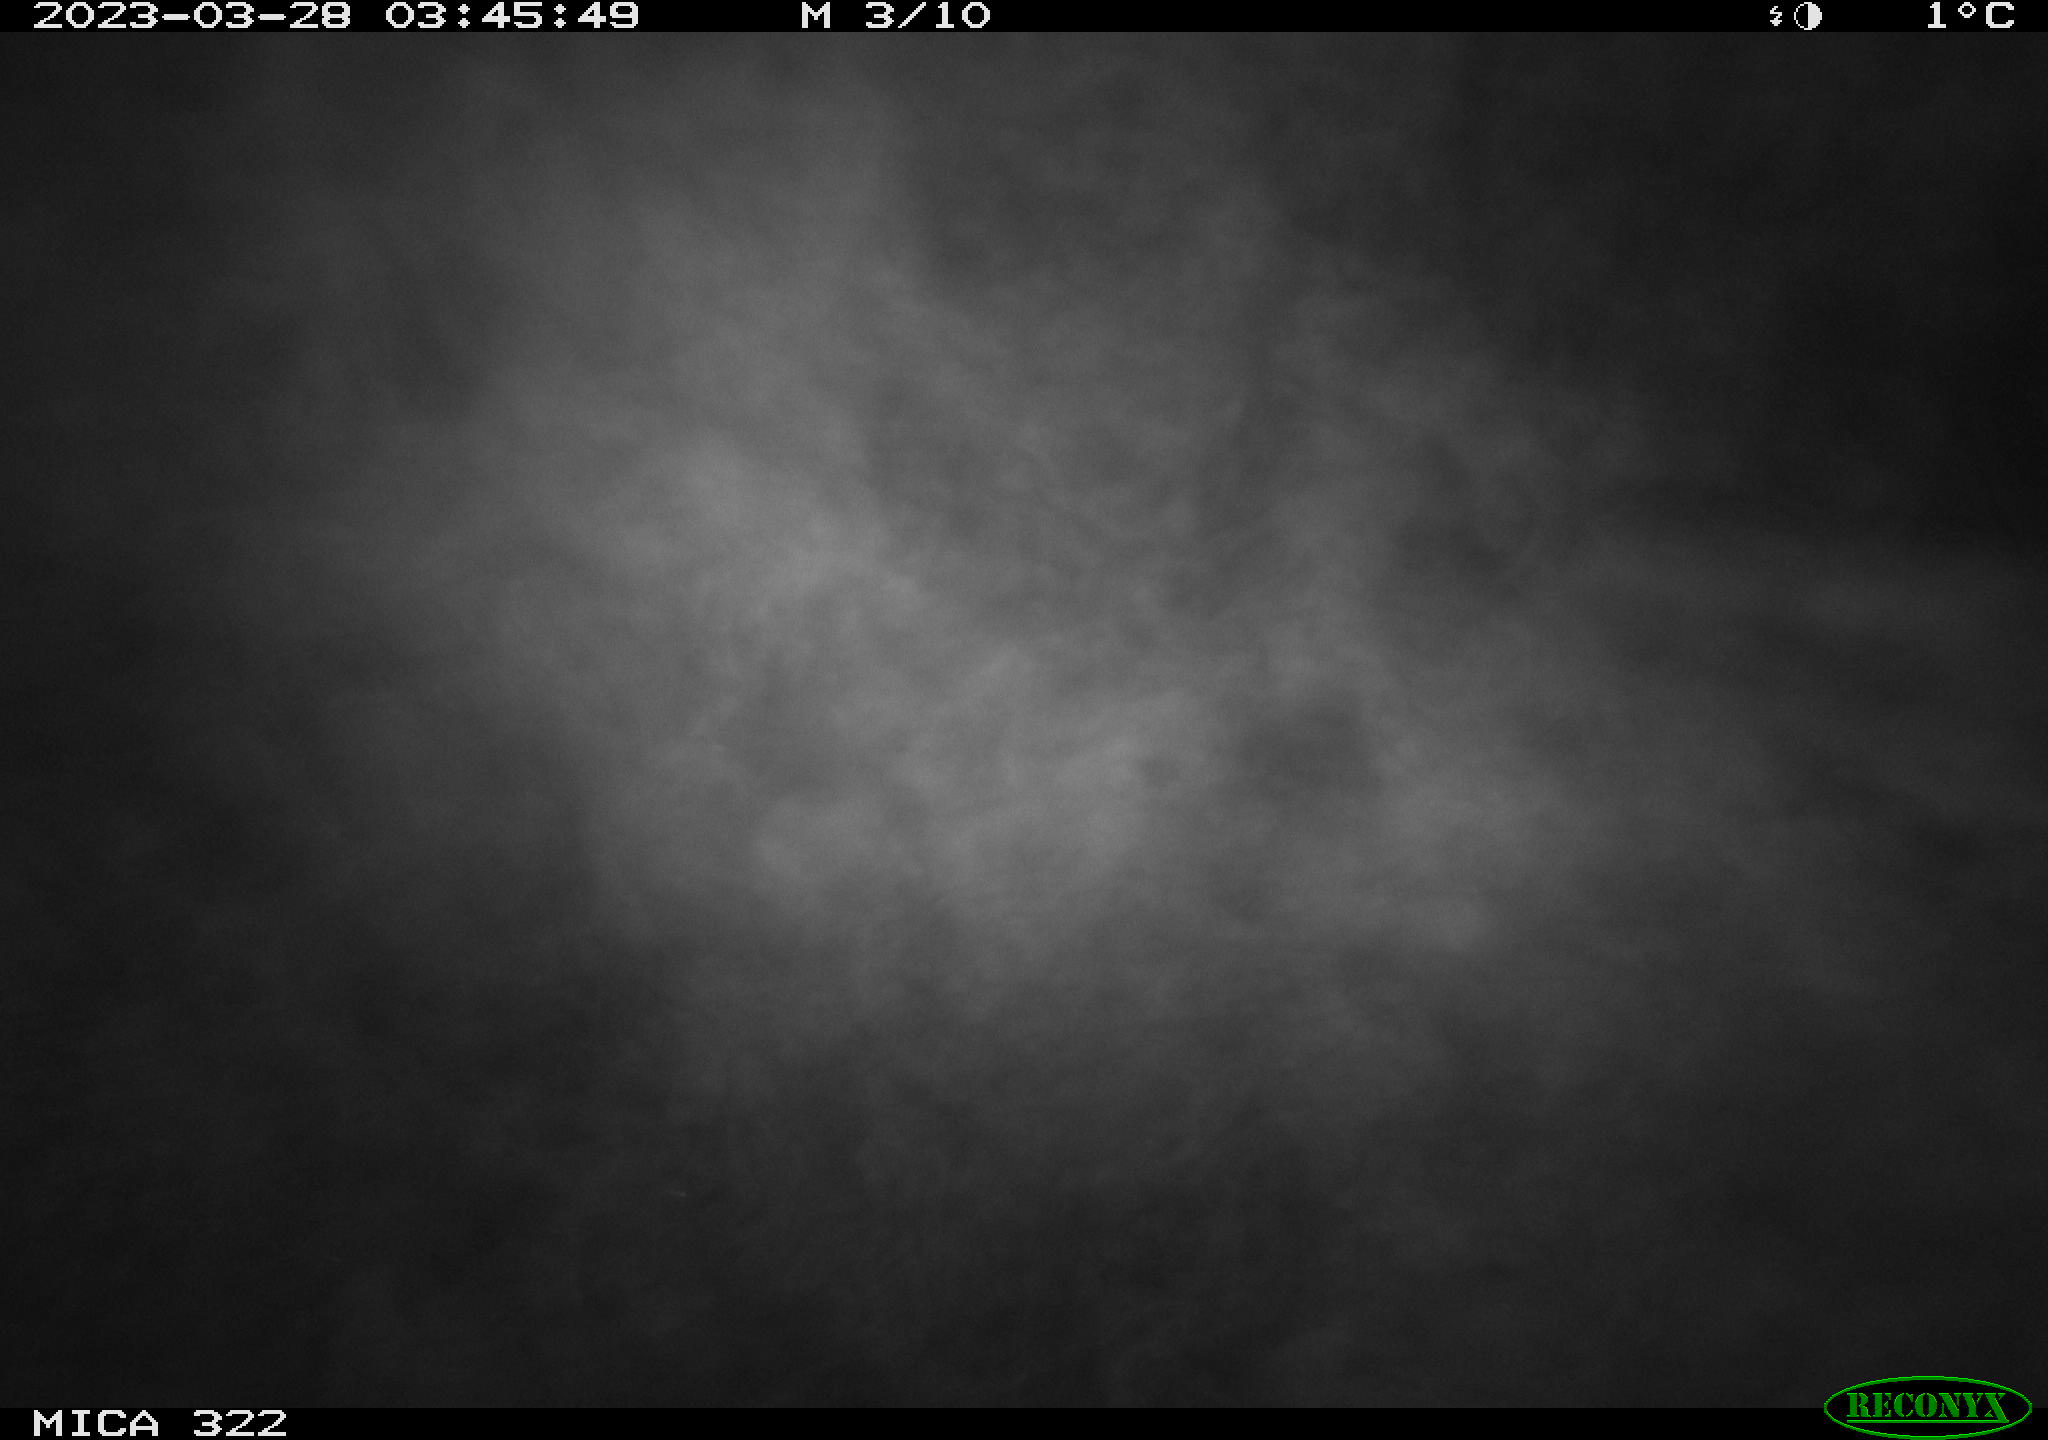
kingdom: Animalia
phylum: Chordata
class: Aves
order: Anseriformes
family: Anatidae
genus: Anas
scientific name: Anas
